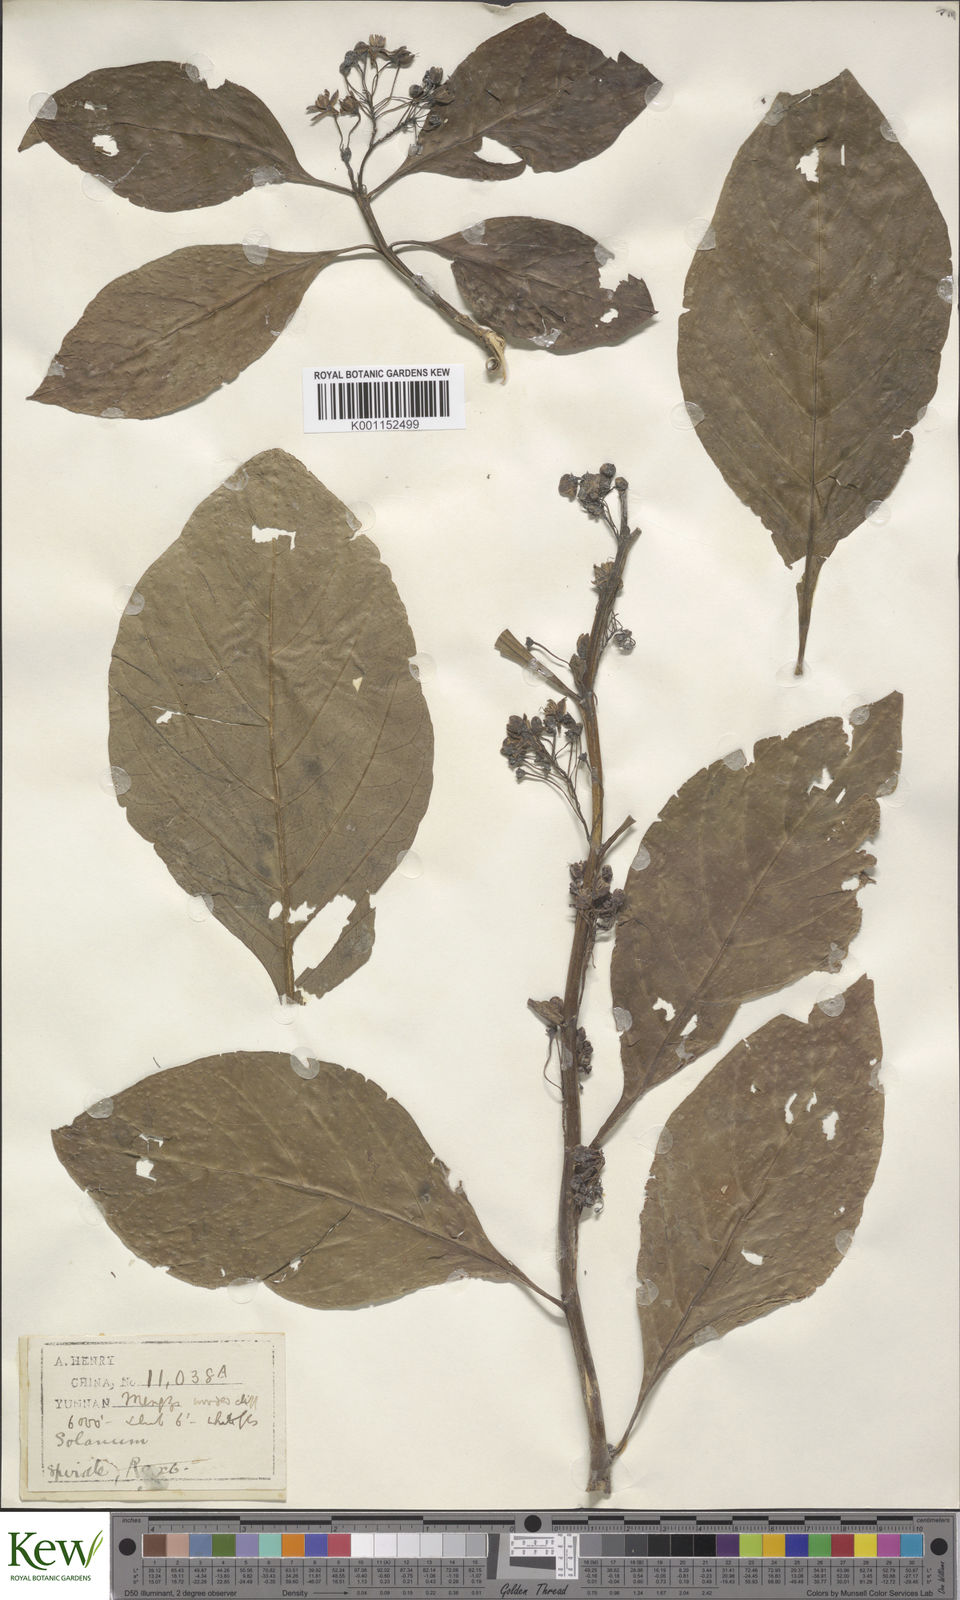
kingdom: Plantae
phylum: Tracheophyta
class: Magnoliopsida
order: Solanales
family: Solanaceae
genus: Solanum
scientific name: Solanum spirale
